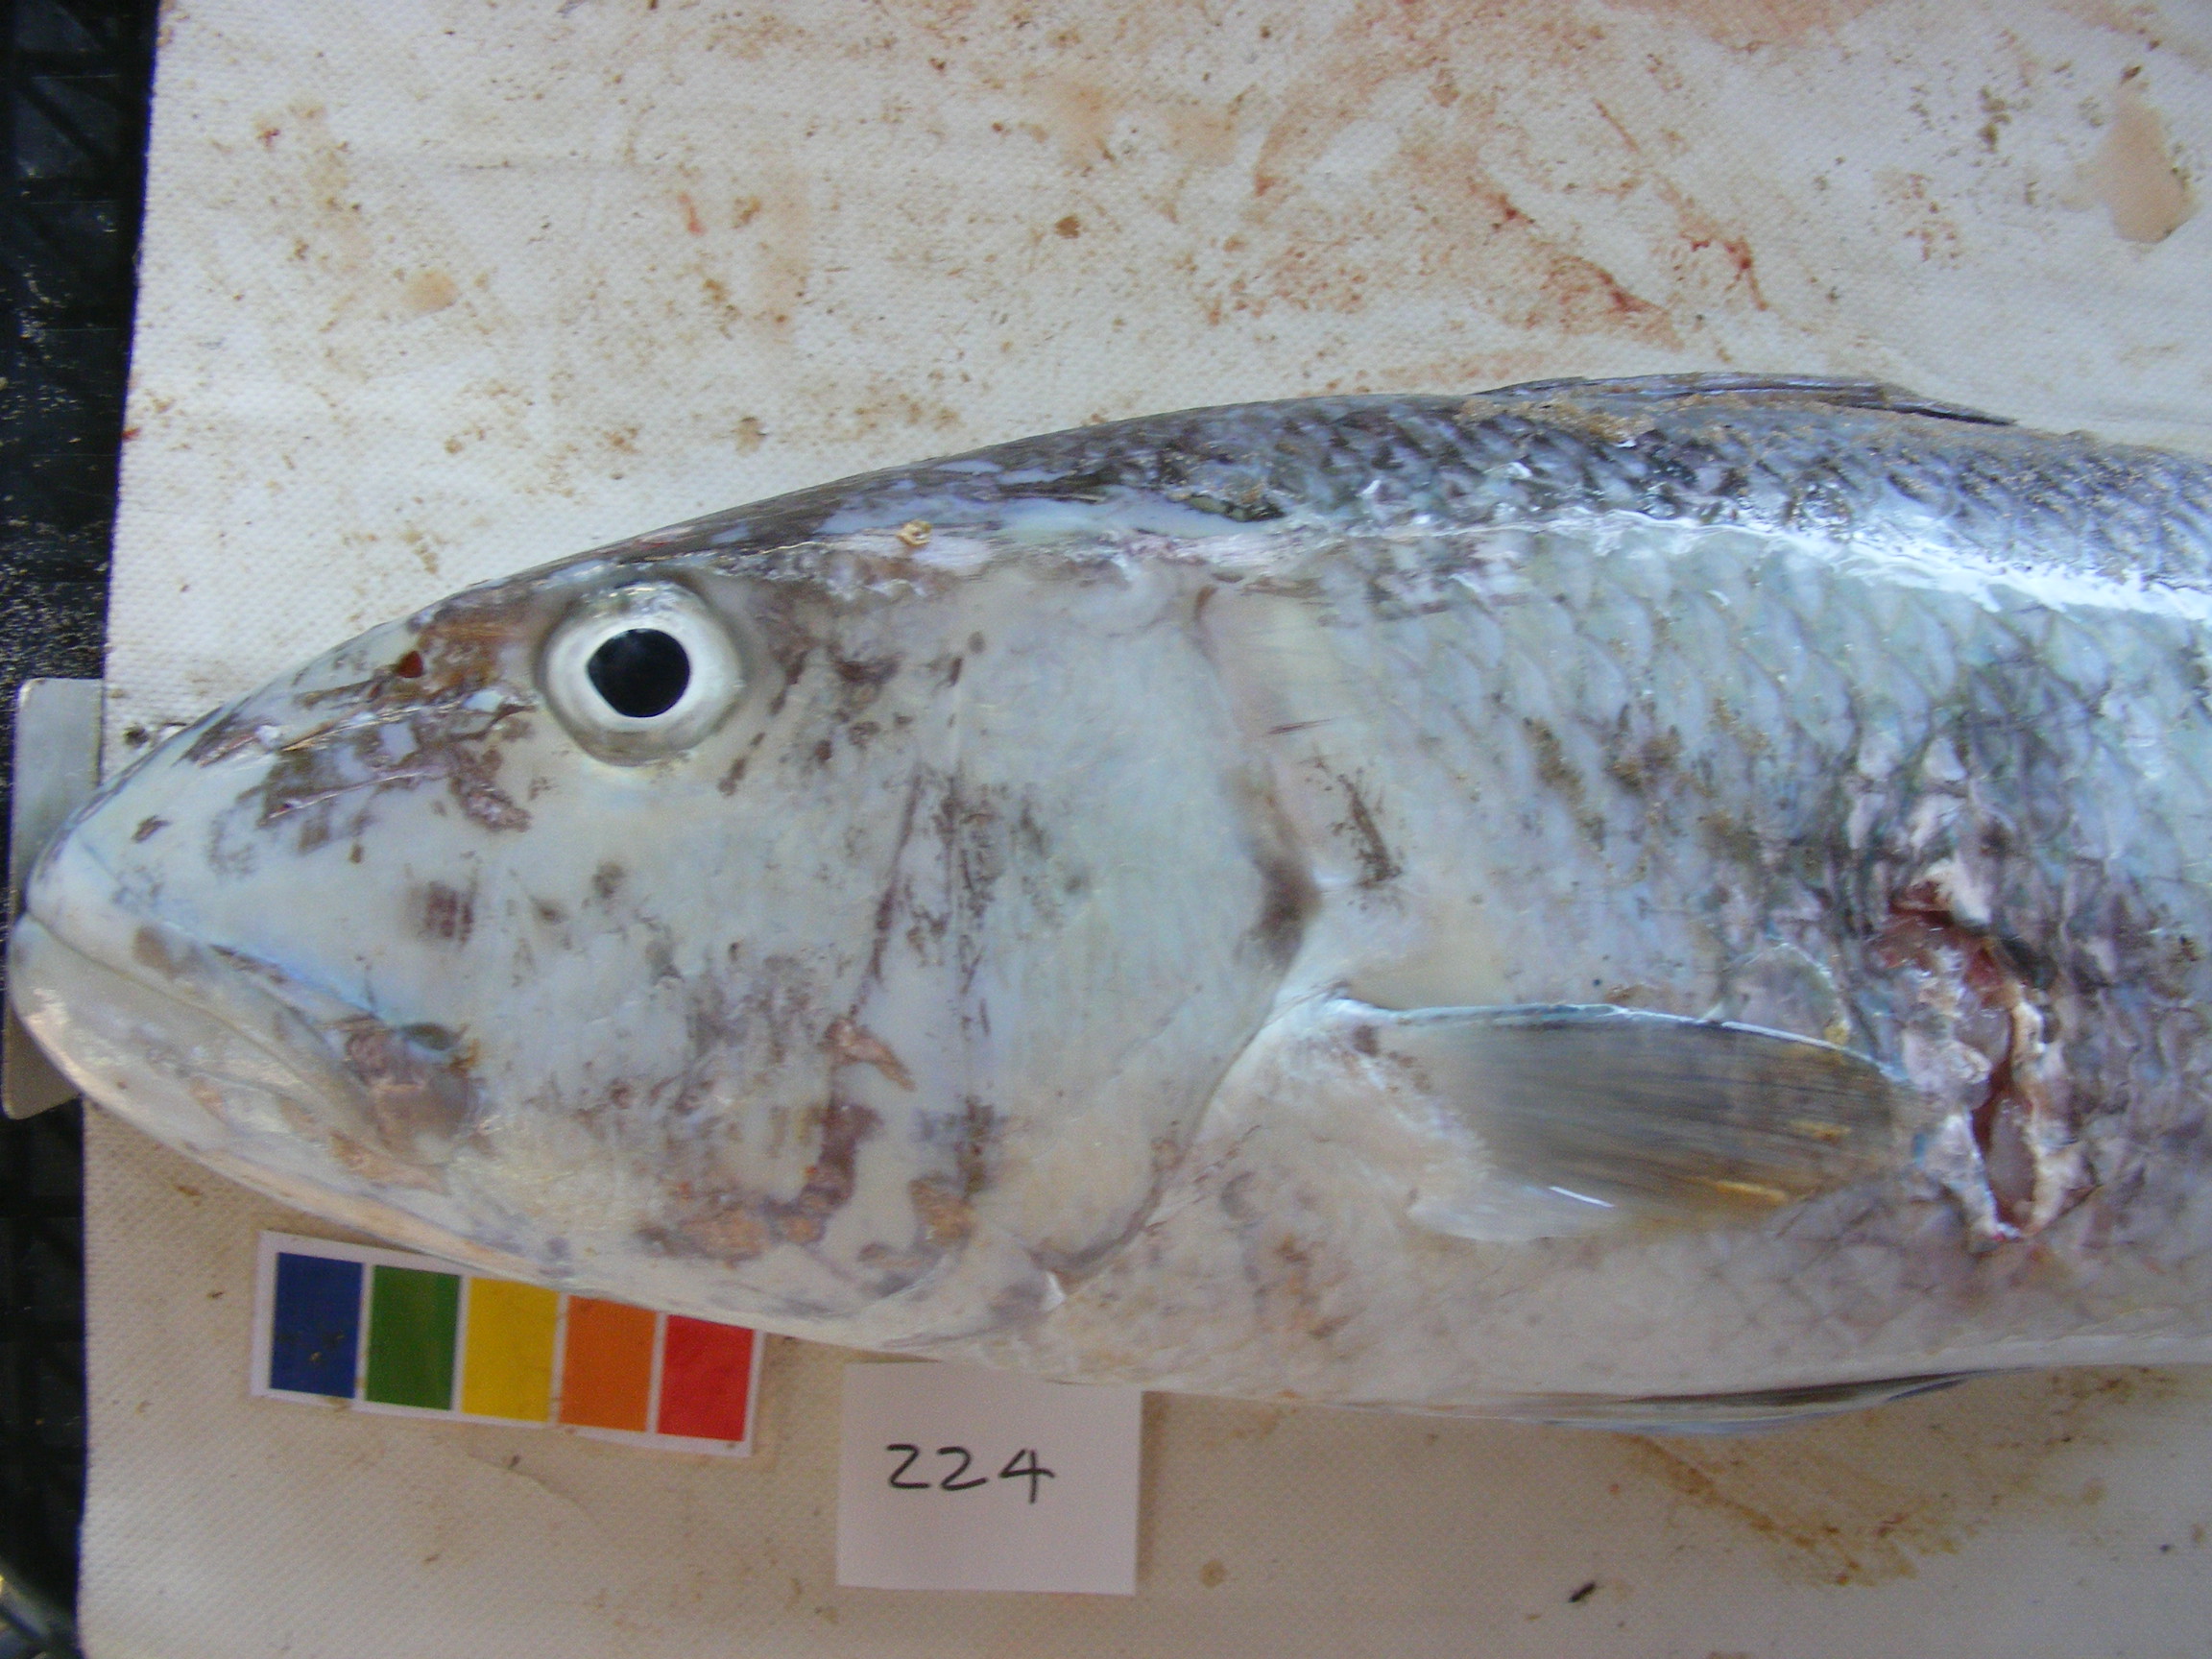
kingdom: Animalia
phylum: Chordata
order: Perciformes
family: Lutjanidae
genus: Aprion
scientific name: Aprion virescens
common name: Green jobfish
